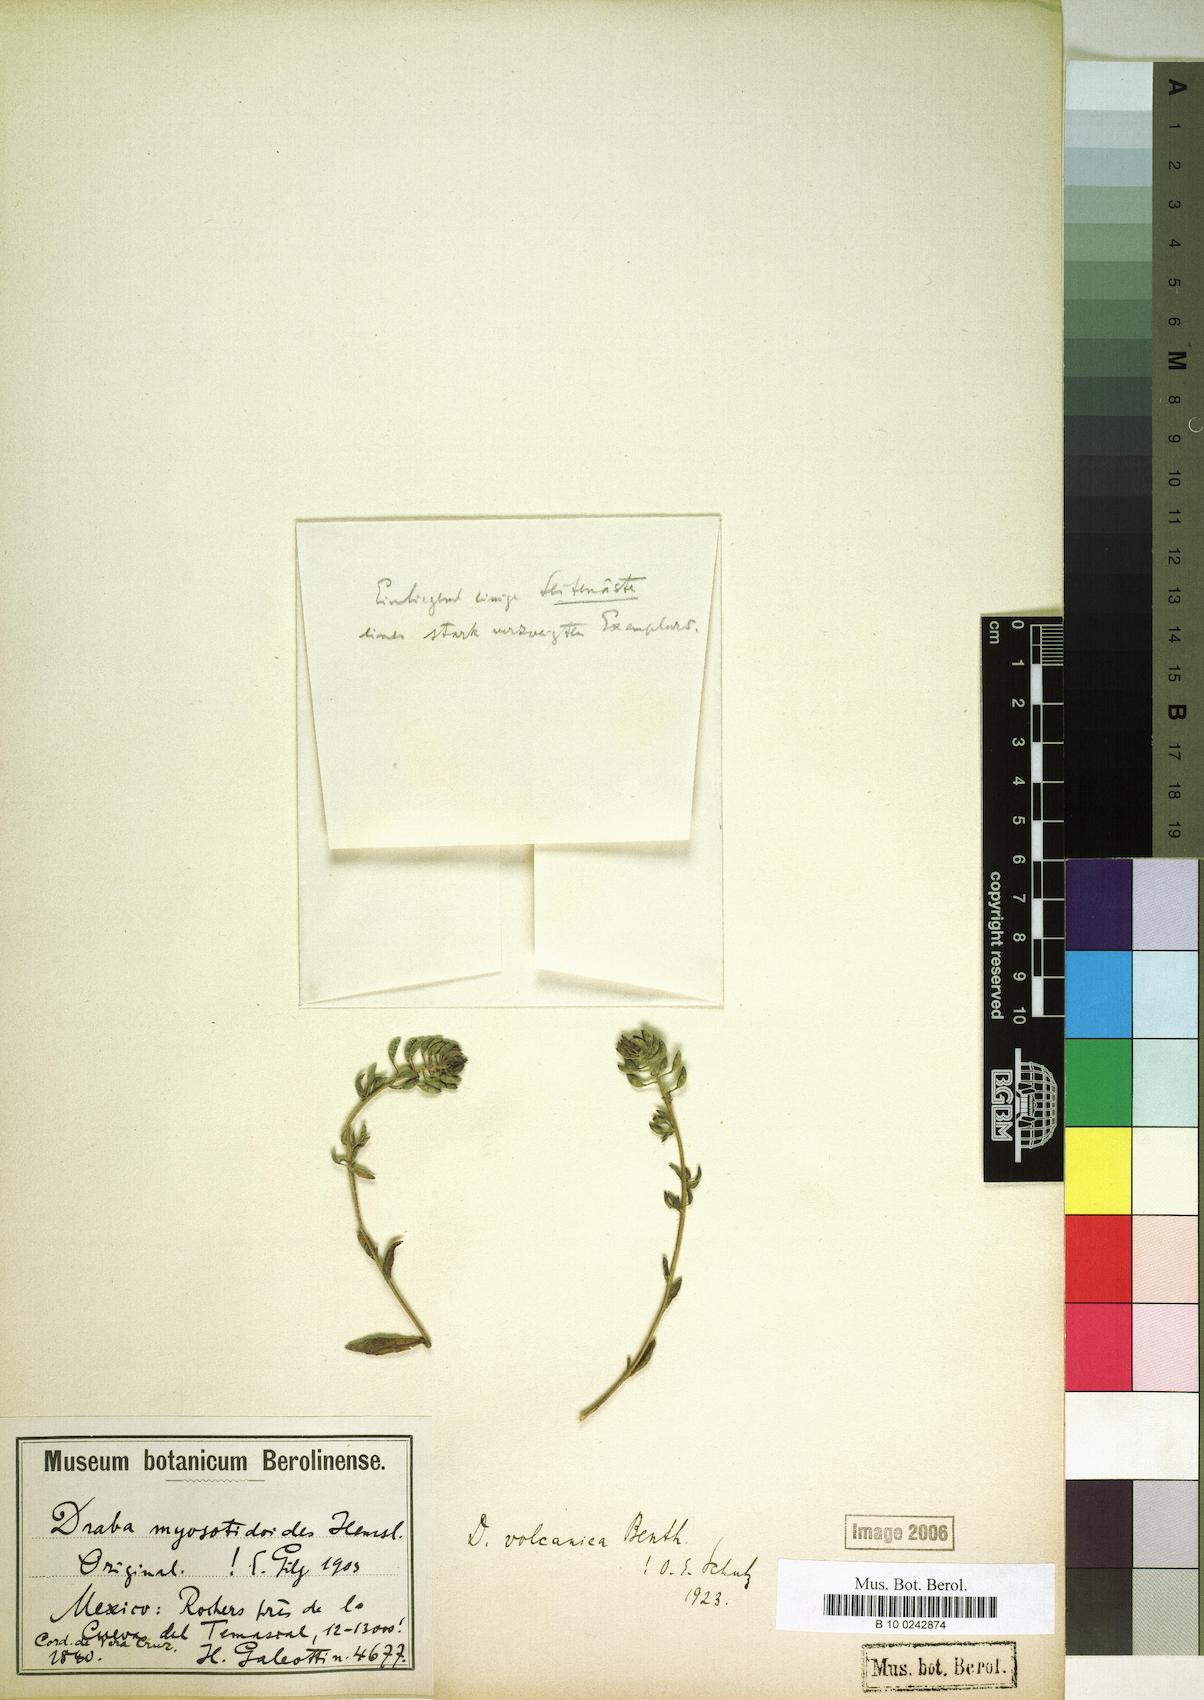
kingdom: Plantae
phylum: Tracheophyta
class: Magnoliopsida
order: Brassicales
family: Brassicaceae
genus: Draba
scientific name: Draba jorullensis
